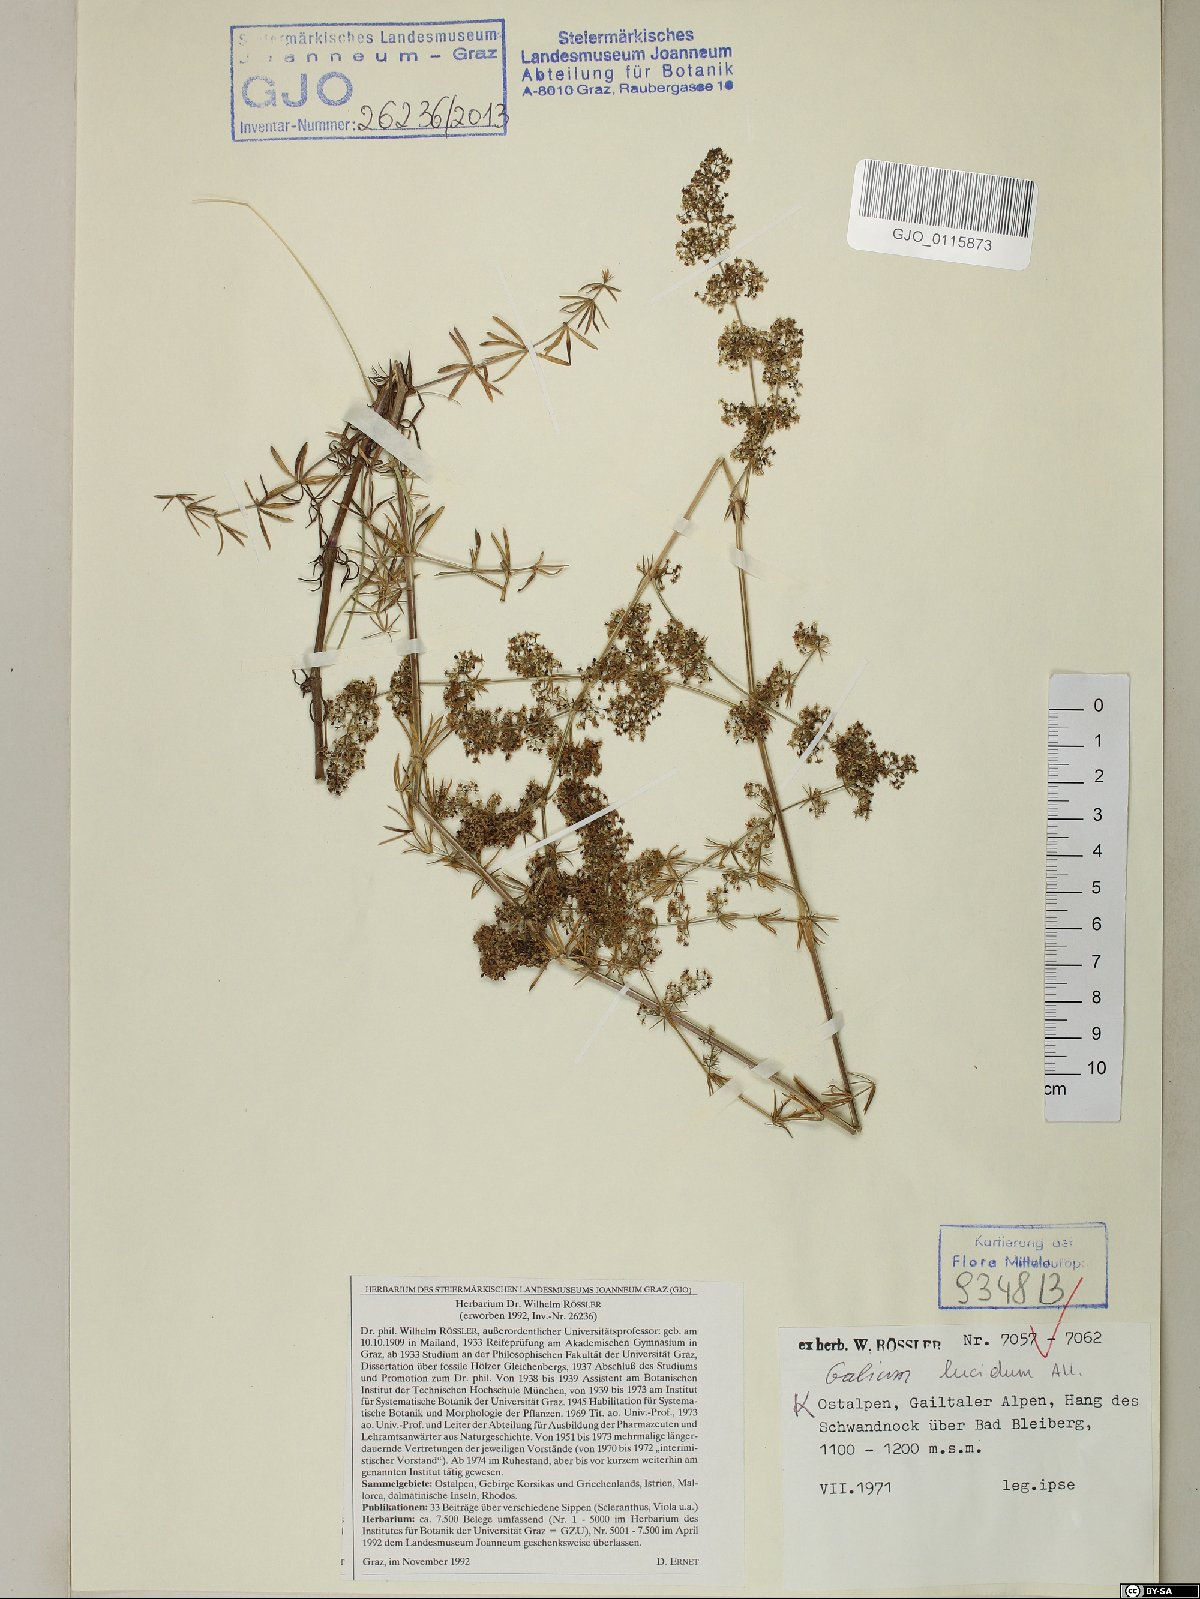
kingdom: Plantae
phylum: Tracheophyta
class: Magnoliopsida
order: Gentianales
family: Rubiaceae
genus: Galium
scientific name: Galium lucidum
